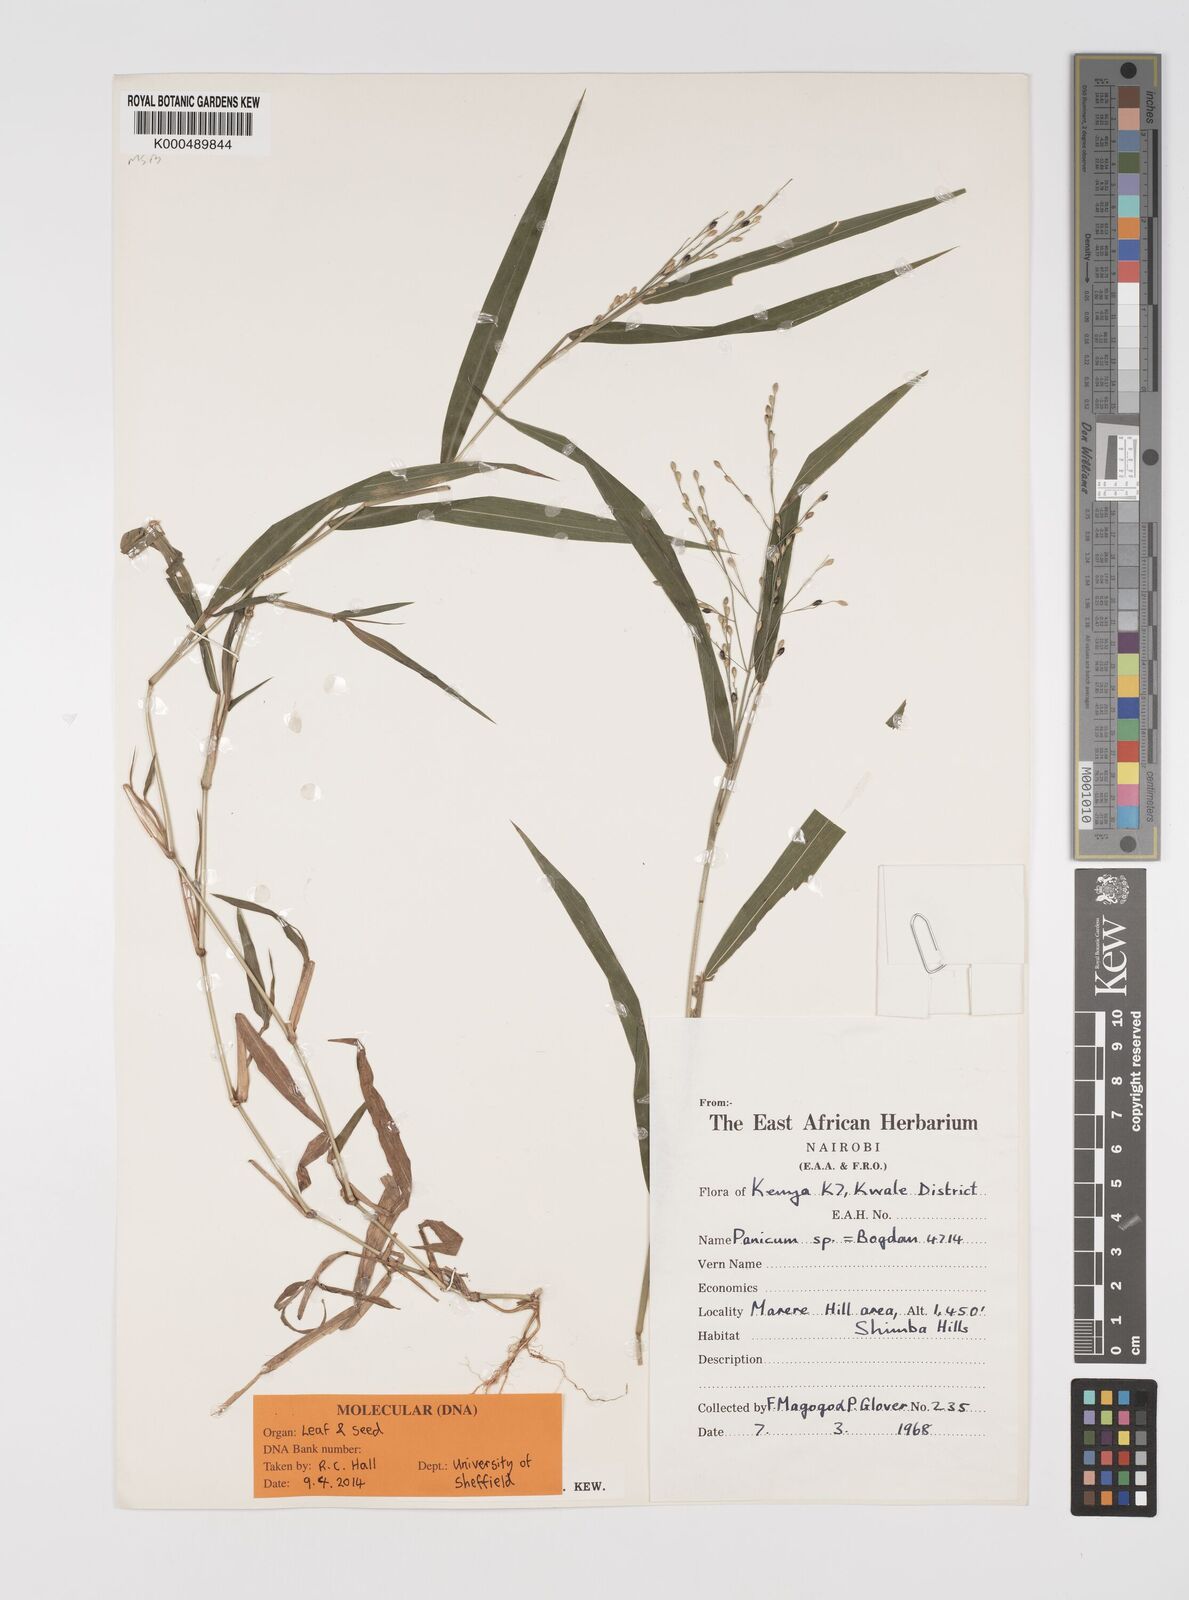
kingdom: Plantae
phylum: Tracheophyta
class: Liliopsida
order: Poales
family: Poaceae
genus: Acroceras
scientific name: Acroceras attenuatum
